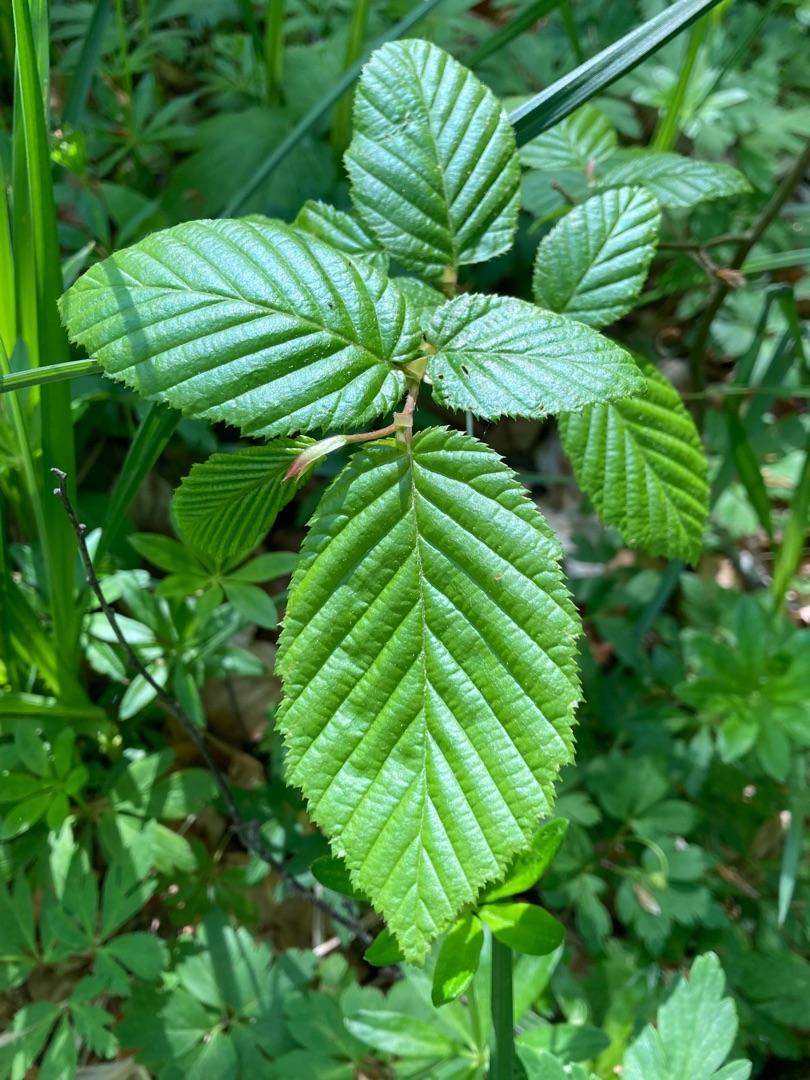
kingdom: Plantae
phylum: Tracheophyta
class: Magnoliopsida
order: Fagales
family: Betulaceae
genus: Carpinus
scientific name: Carpinus betulus
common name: Avnbøg
